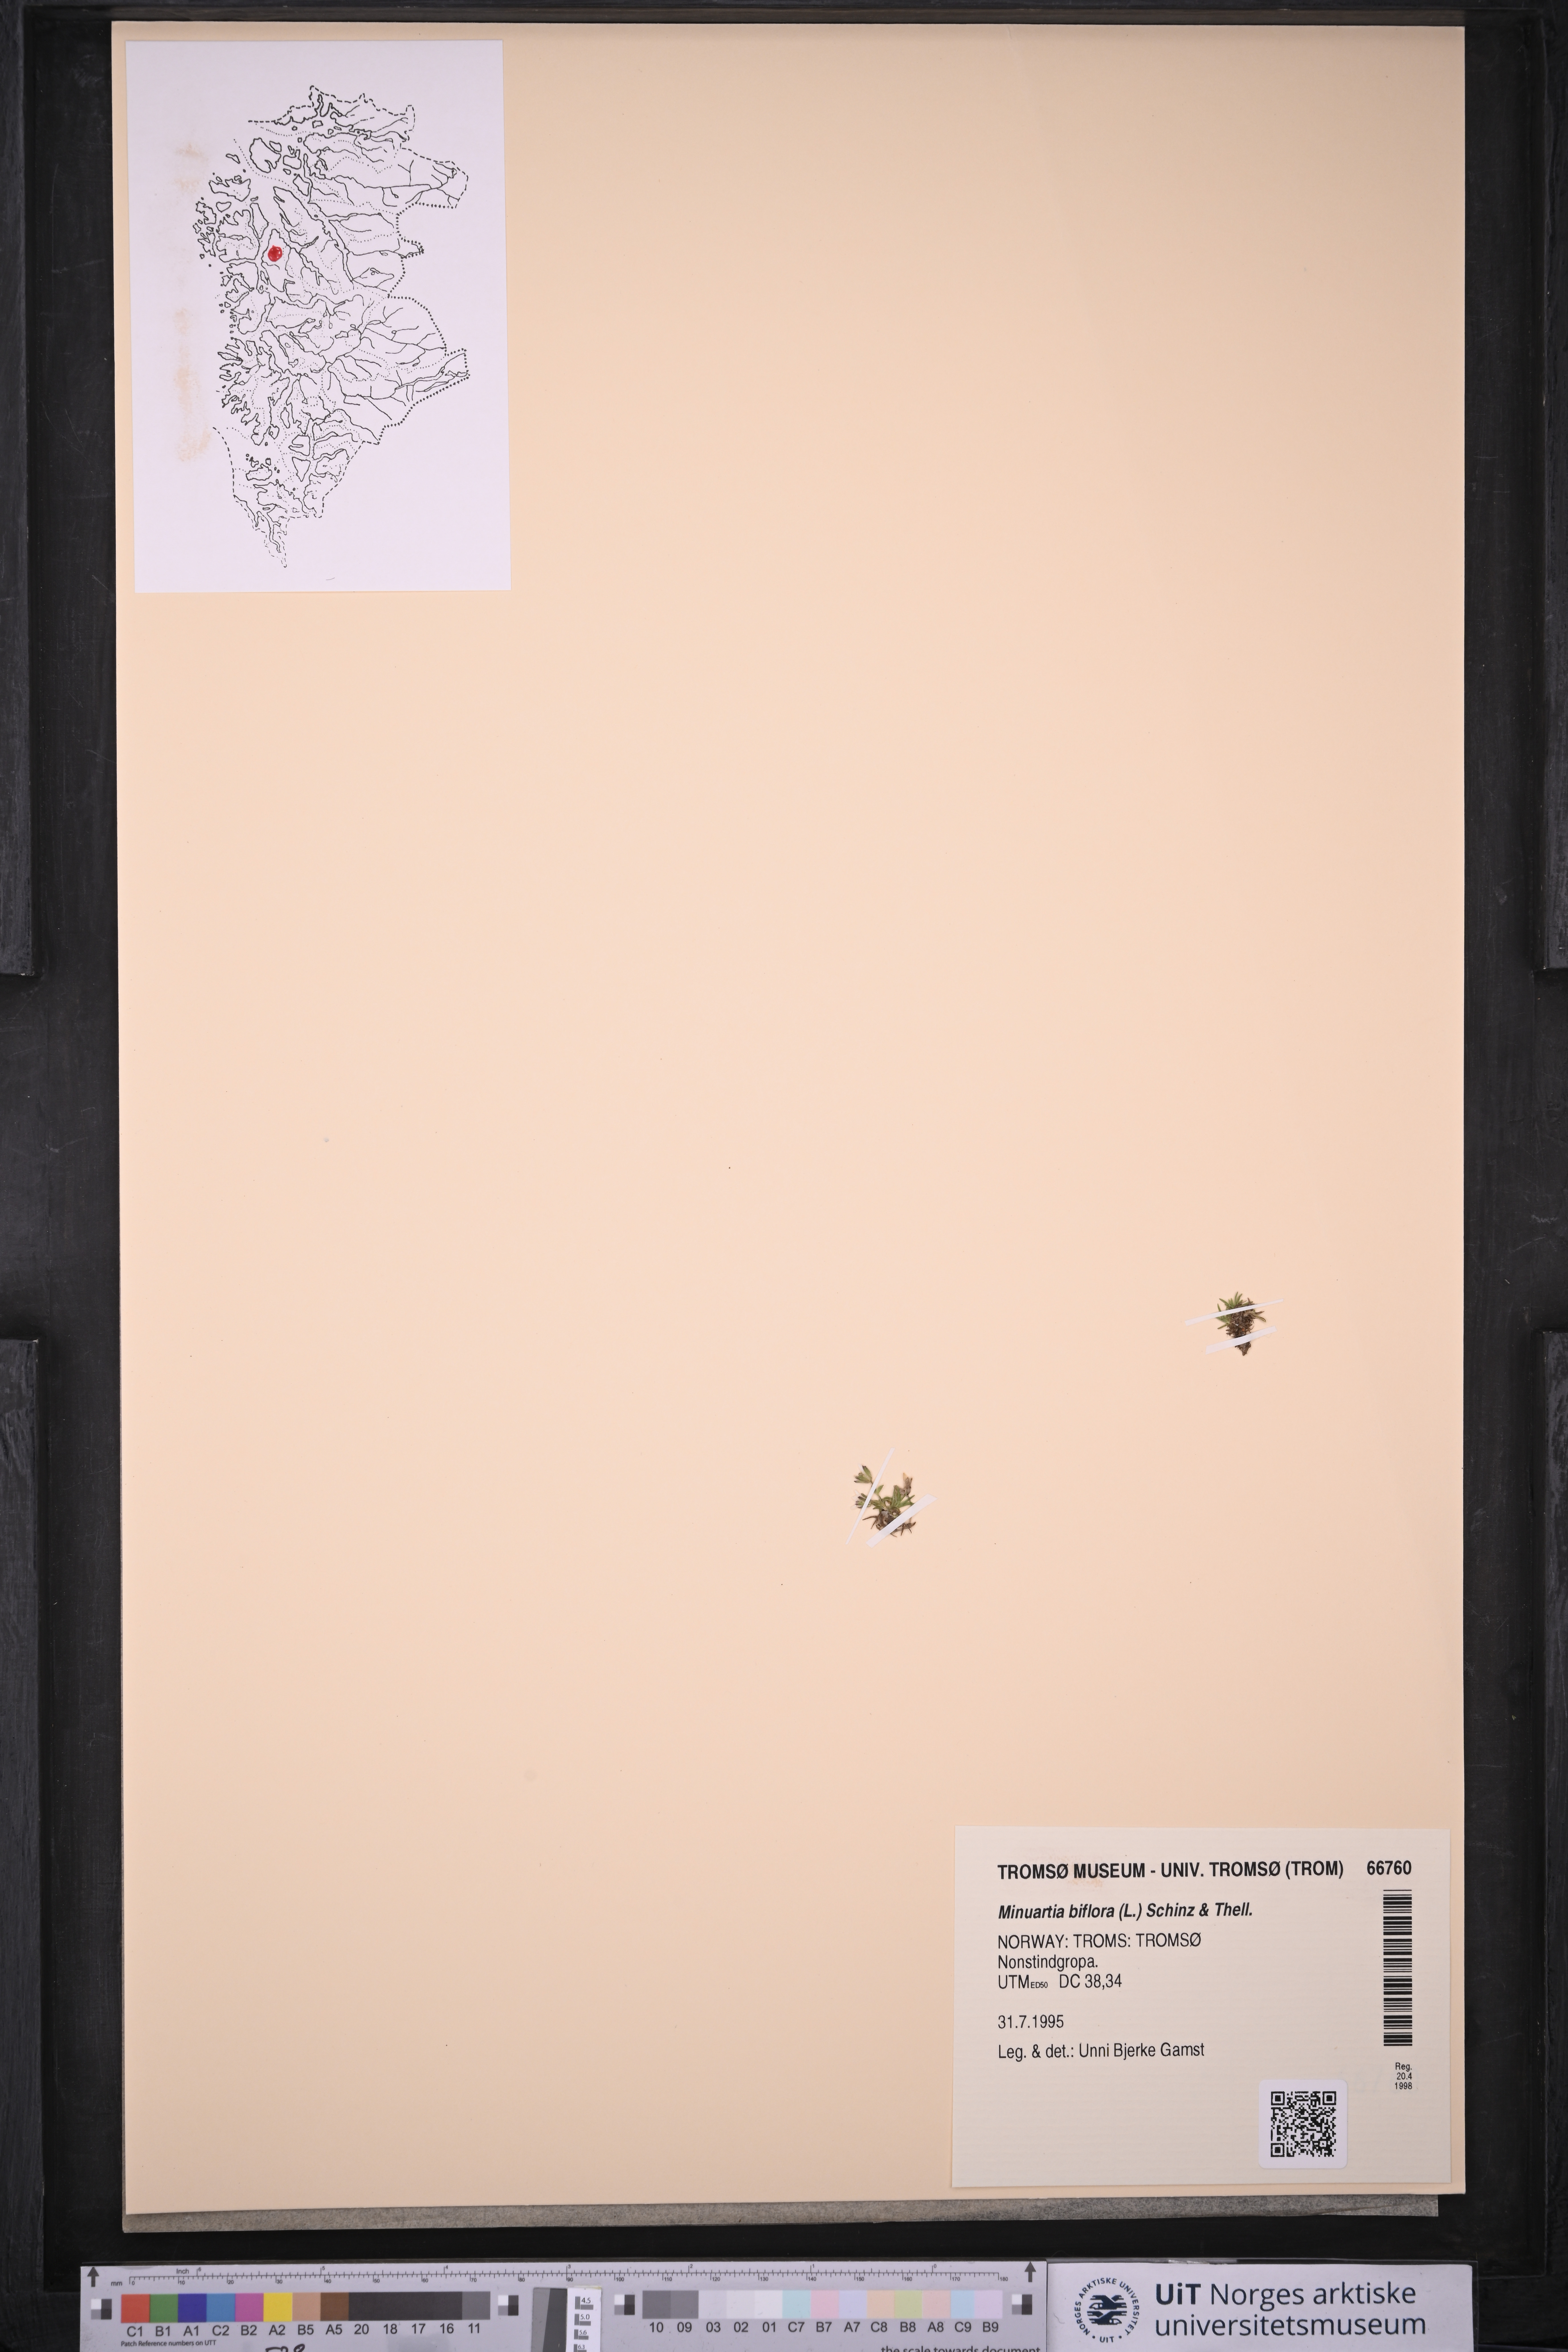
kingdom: Plantae
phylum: Tracheophyta
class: Magnoliopsida
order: Caryophyllales
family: Caryophyllaceae
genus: Cherleria
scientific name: Cherleria biflora
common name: Mountain sandwort
